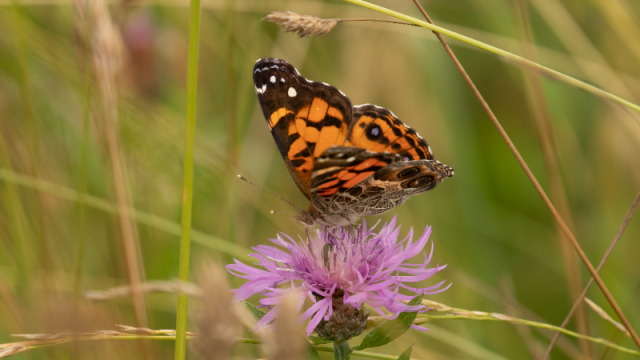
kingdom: Animalia
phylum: Arthropoda
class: Insecta
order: Lepidoptera
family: Nymphalidae
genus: Vanessa
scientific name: Vanessa virginiensis
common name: American Lady
